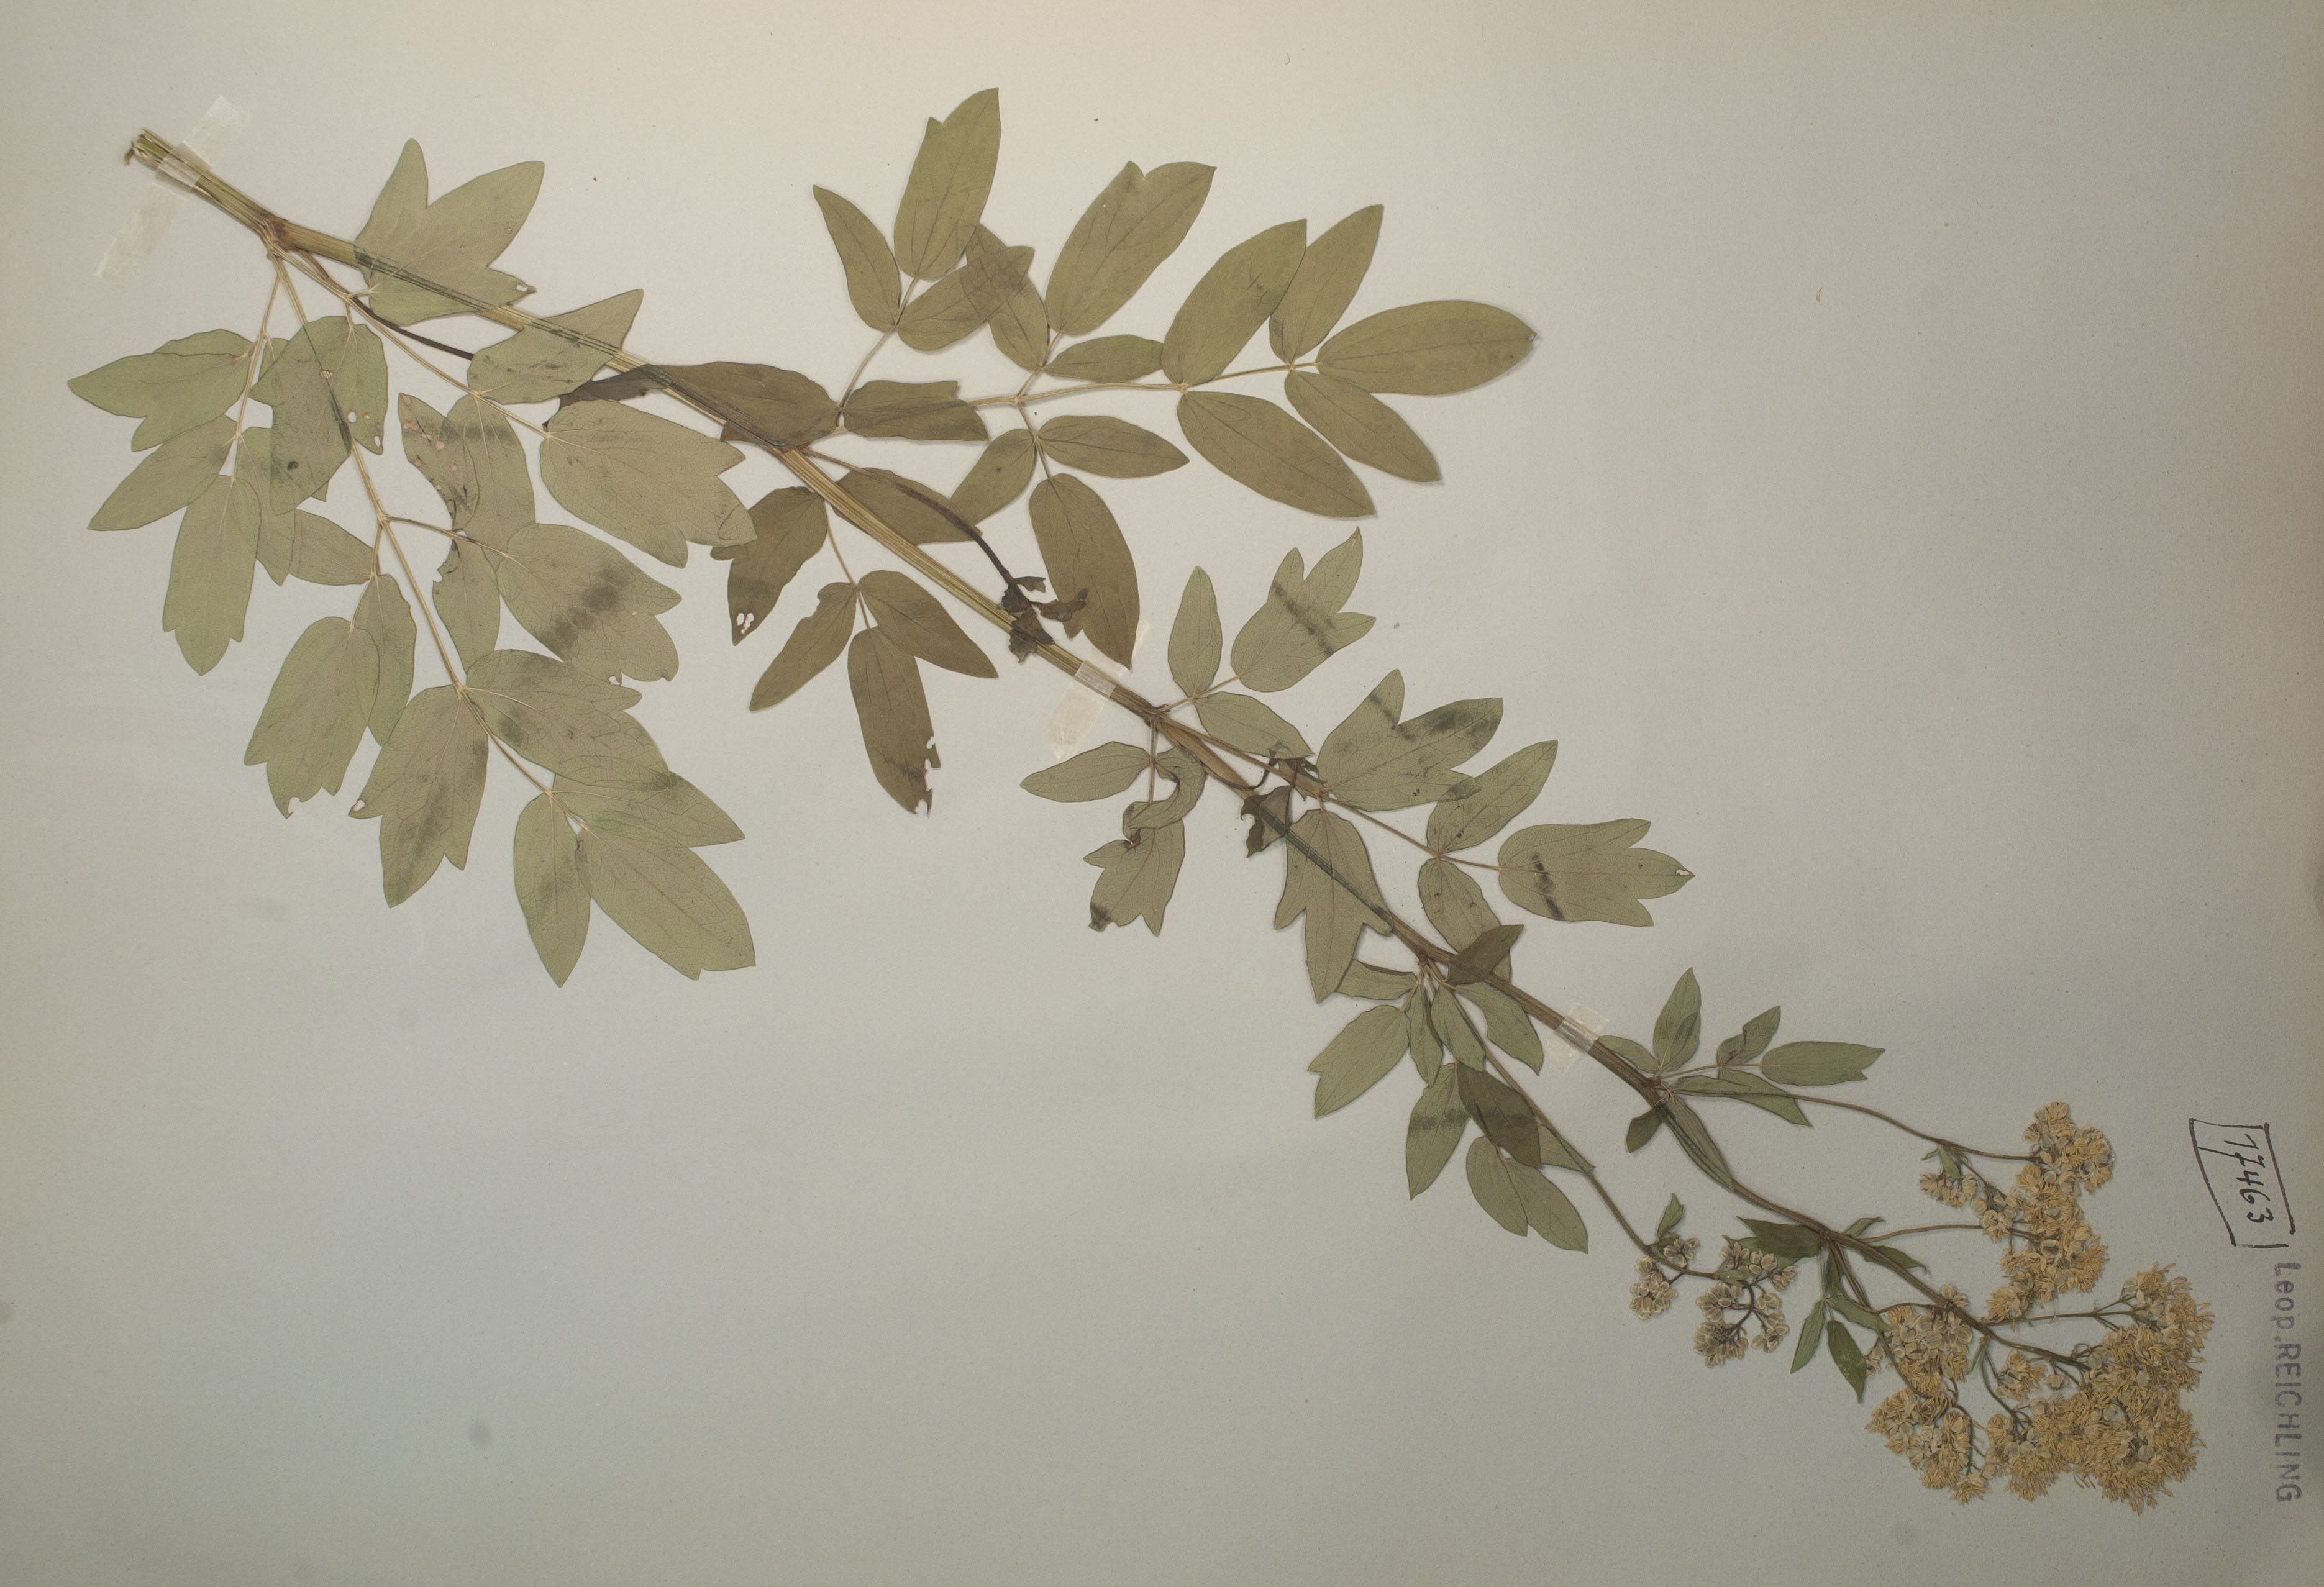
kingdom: Plantae
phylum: Tracheophyta
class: Magnoliopsida
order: Ranunculales
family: Ranunculaceae
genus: Thalictrum
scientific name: Thalictrum flavum
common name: Common meadow-rue
